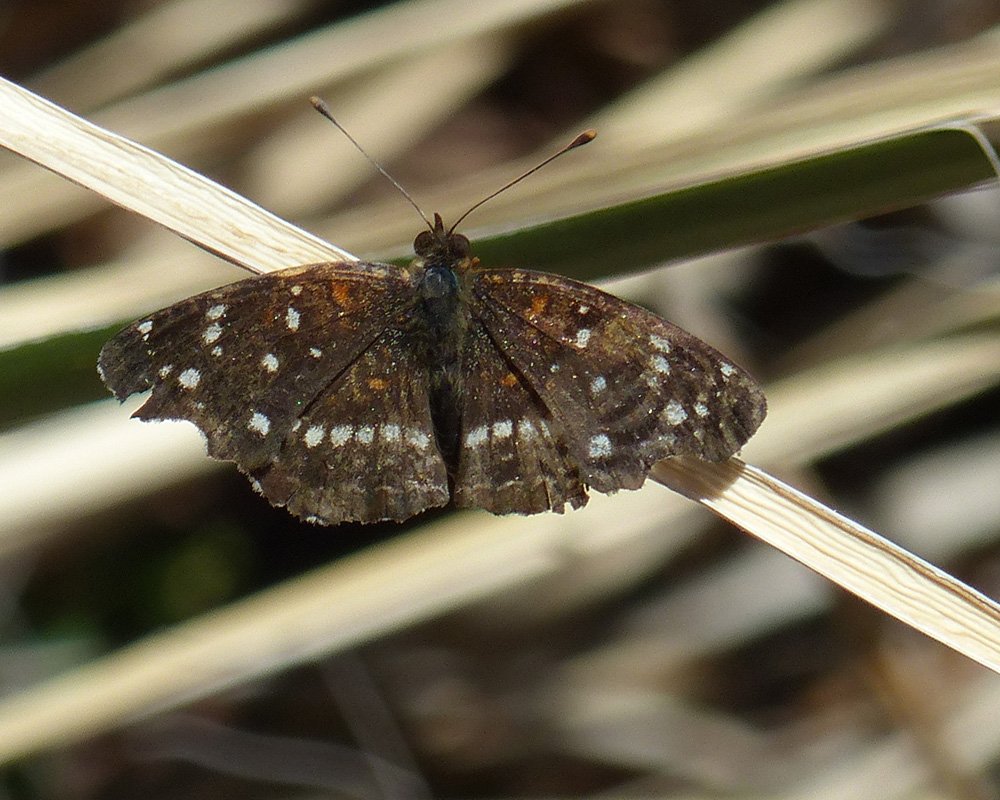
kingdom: Animalia
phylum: Arthropoda
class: Insecta
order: Lepidoptera
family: Nymphalidae
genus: Anthanassa
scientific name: Anthanassa texana
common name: Texan Crescent
